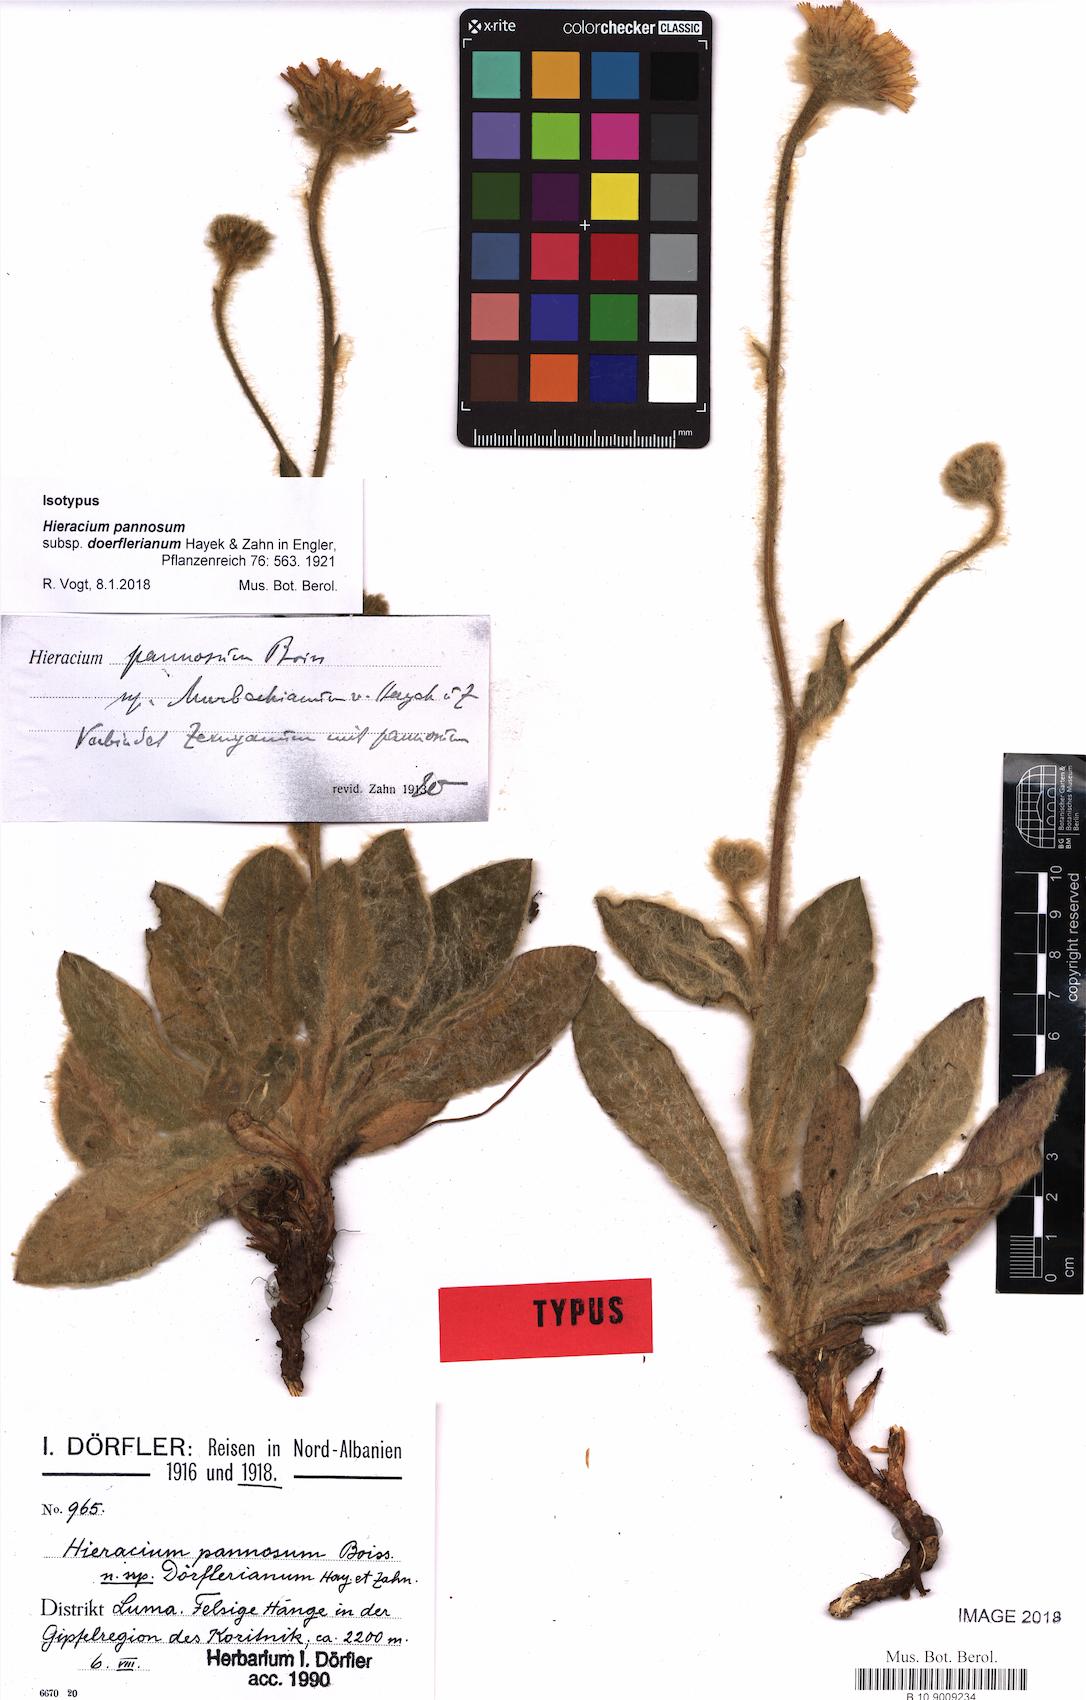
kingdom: Plantae
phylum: Tracheophyta
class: Magnoliopsida
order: Asterales
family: Asteraceae
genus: Hieracium
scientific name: Hieracium pannosum
